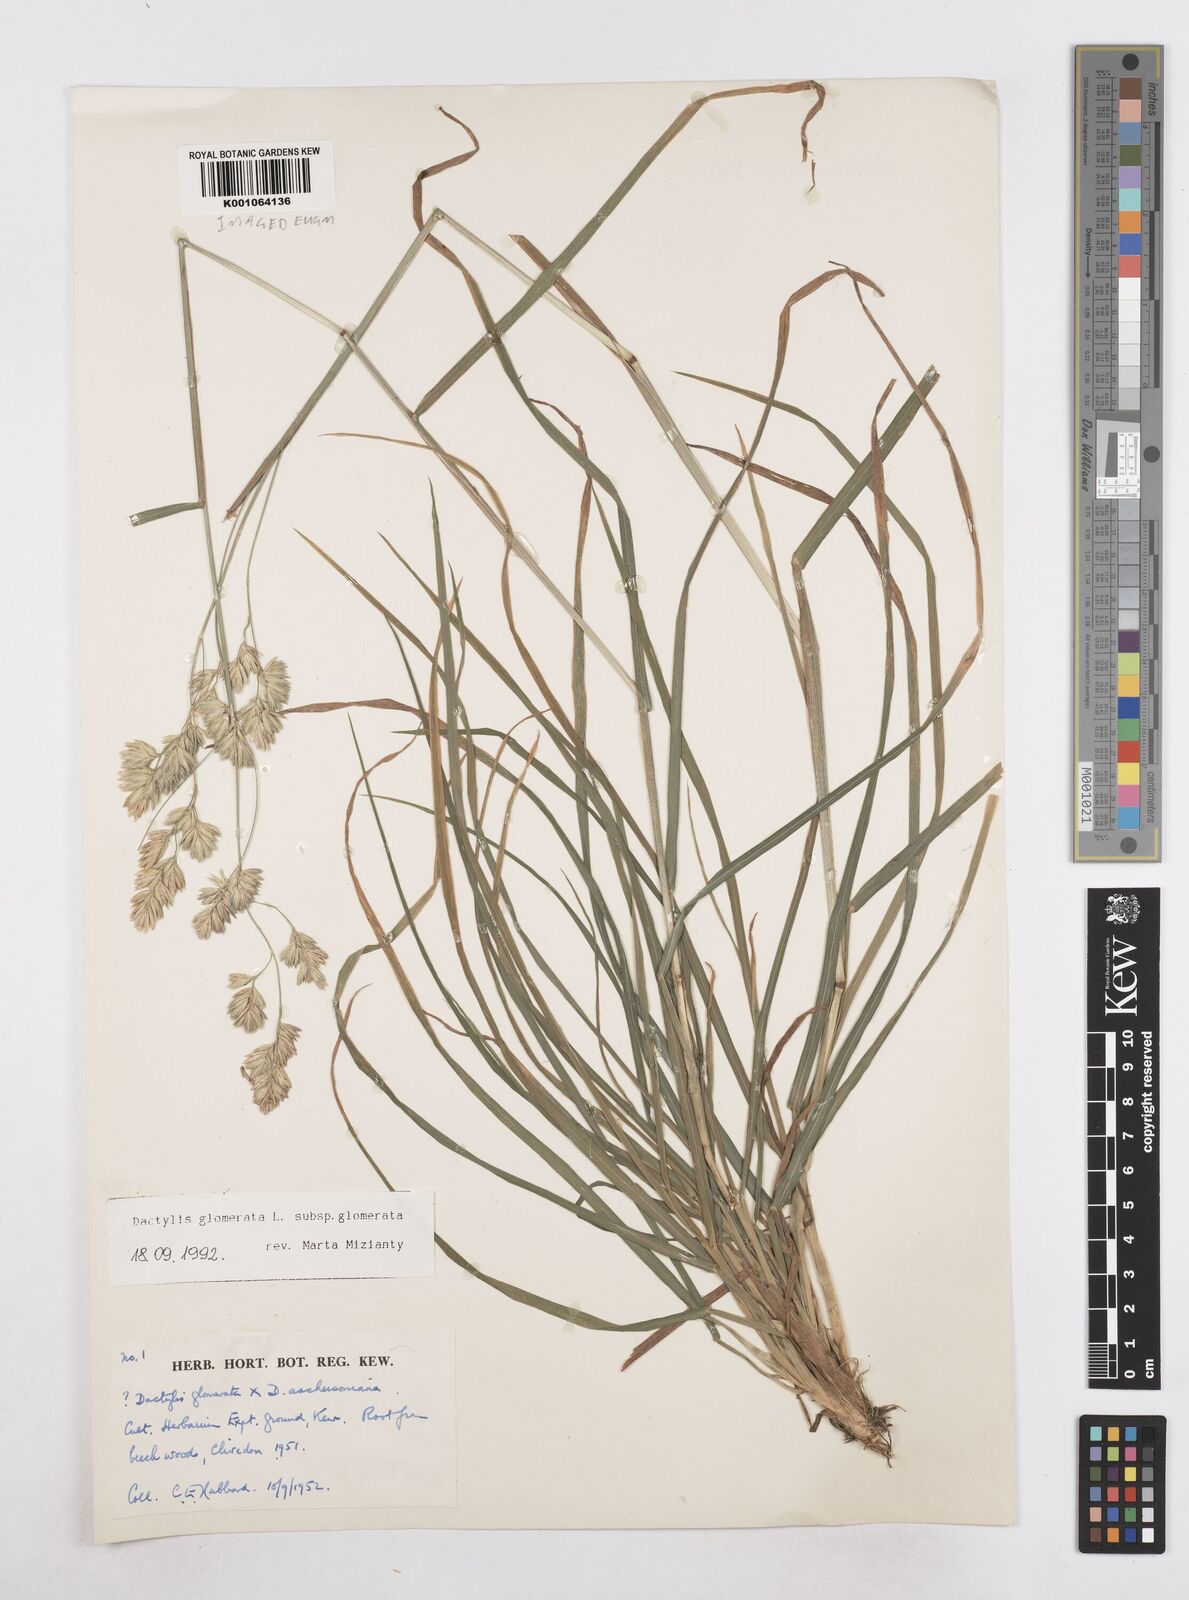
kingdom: Plantae
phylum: Tracheophyta
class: Liliopsida
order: Poales
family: Poaceae
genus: Dactylis
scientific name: Dactylis glomerata
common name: Orchardgrass
